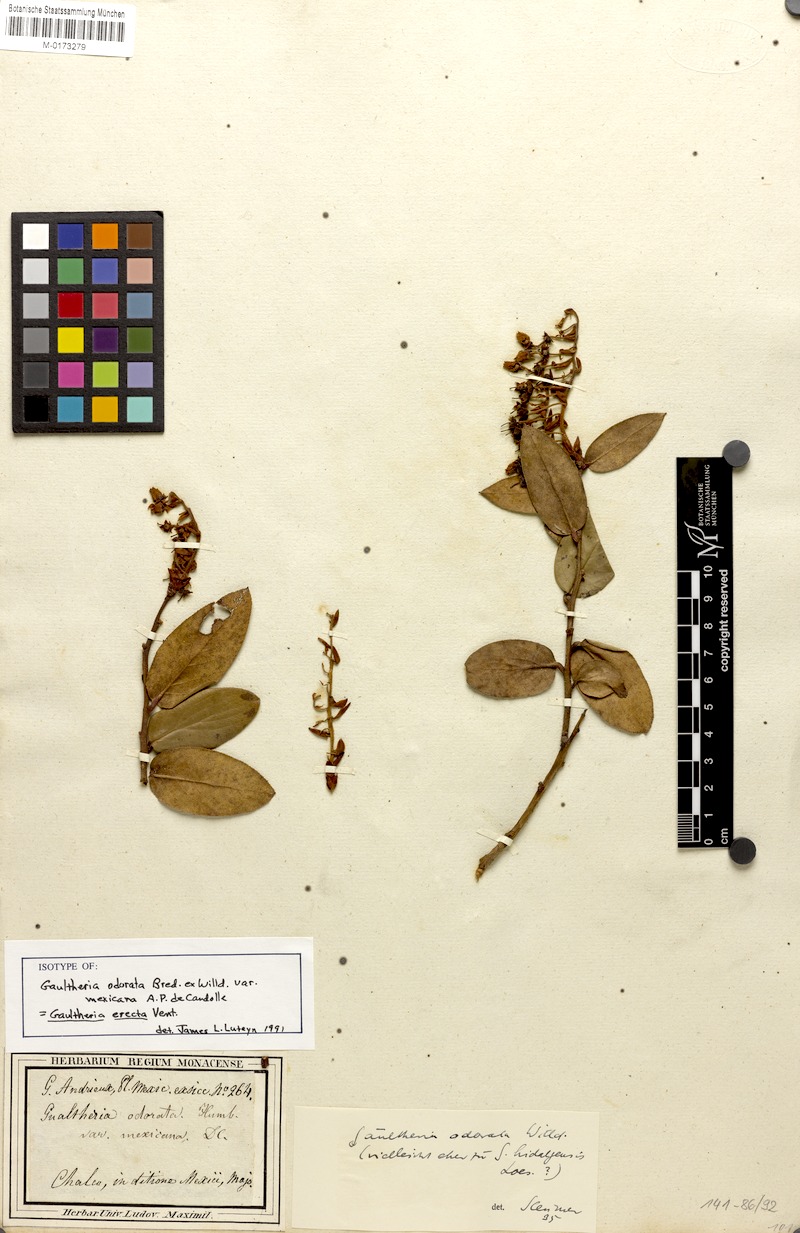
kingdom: Plantae
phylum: Tracheophyta
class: Magnoliopsida
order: Ericales
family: Ericaceae
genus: Gaultheria
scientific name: Gaultheria erecta
